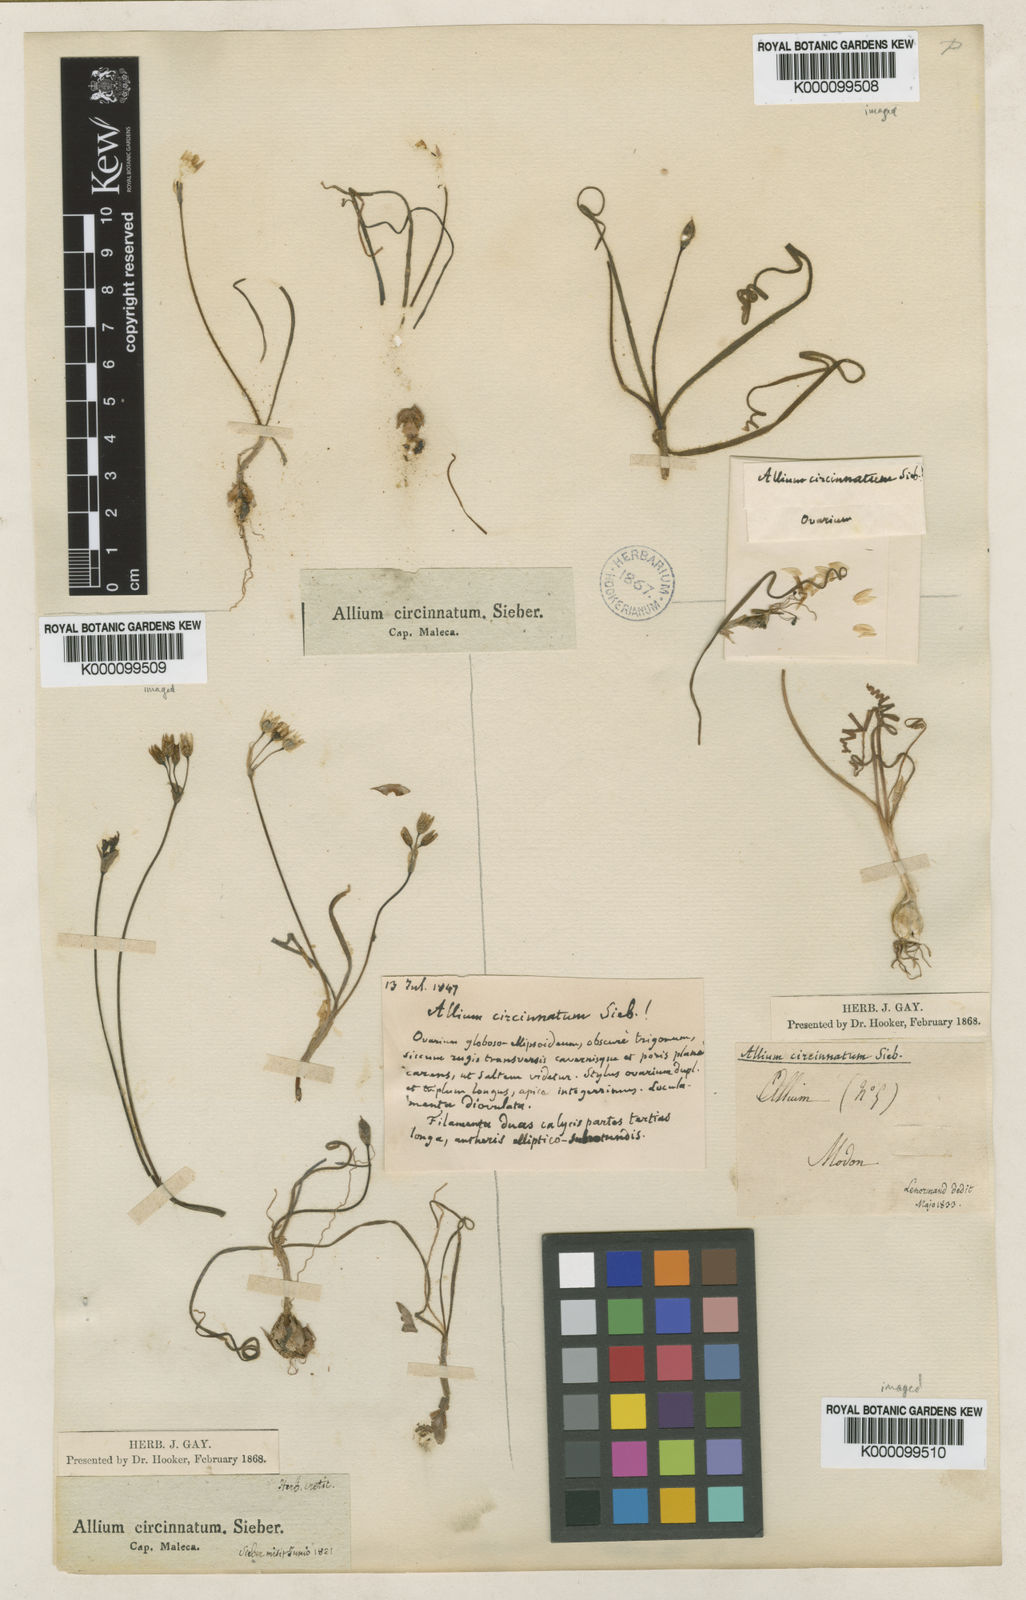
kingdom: Plantae
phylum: Tracheophyta
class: Liliopsida
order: Asparagales
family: Amaryllidaceae
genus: Allium
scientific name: Allium circinnatum
